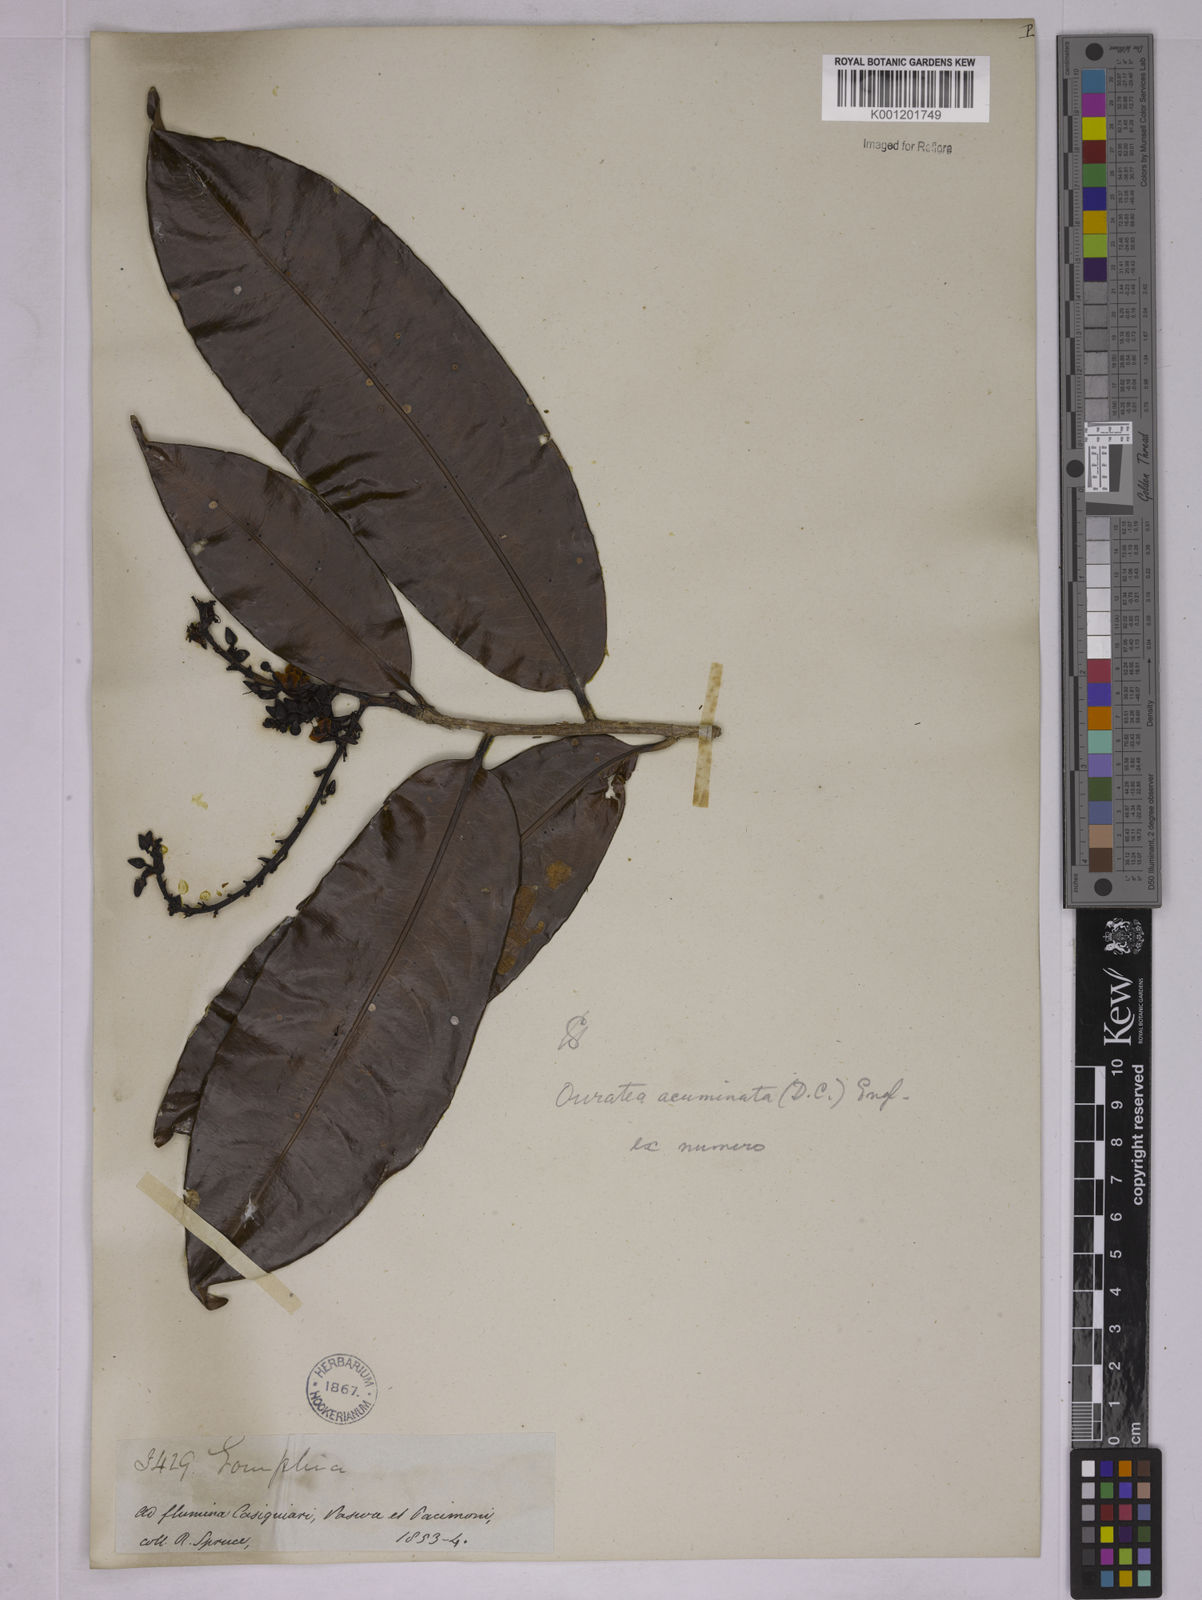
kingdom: Plantae
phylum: Tracheophyta
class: Magnoliopsida
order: Malpighiales
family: Ochnaceae
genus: Ouratea
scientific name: Ouratea acuminata
